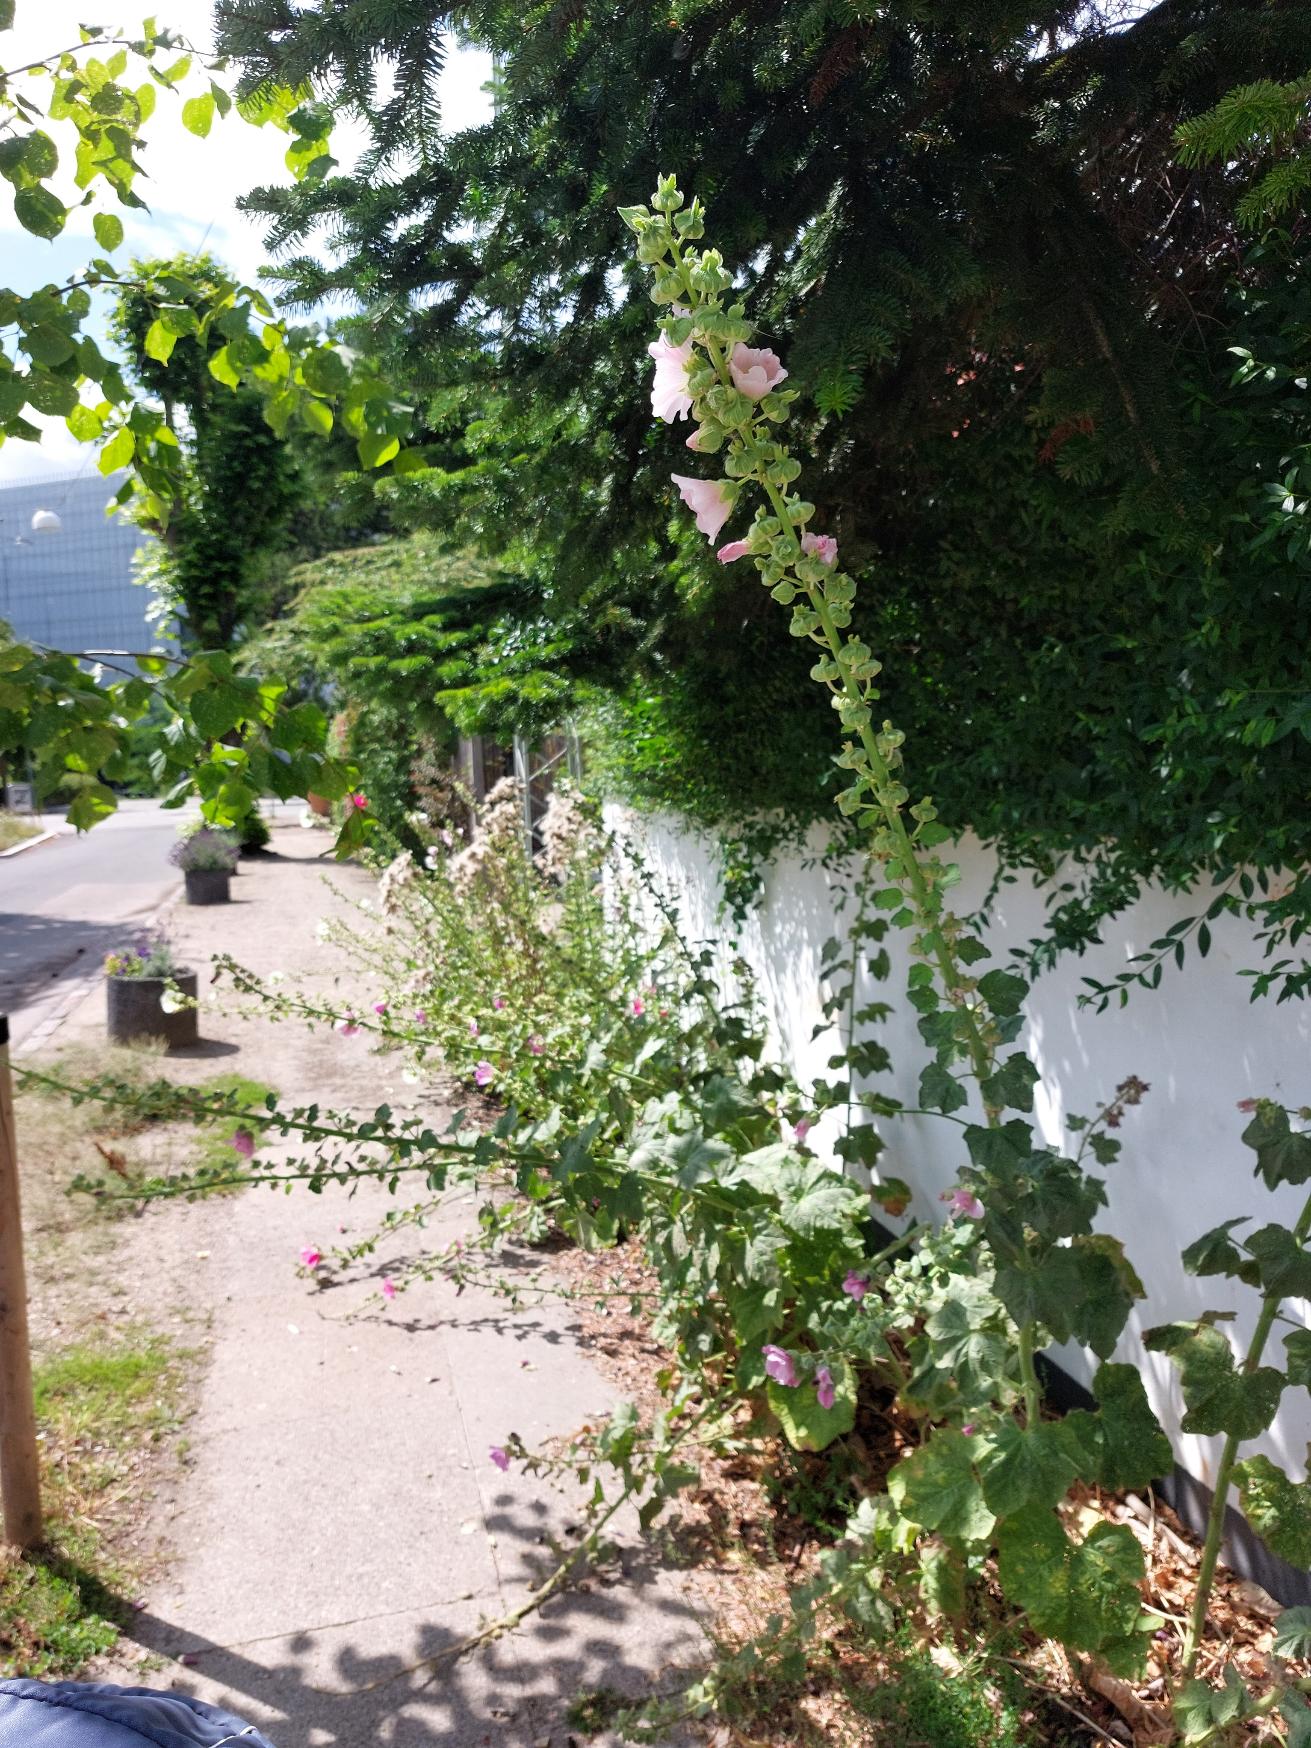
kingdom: Plantae
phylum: Tracheophyta
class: Magnoliopsida
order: Malvales
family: Malvaceae
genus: Alcea
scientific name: Alcea rosea
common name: Have-stokrose
